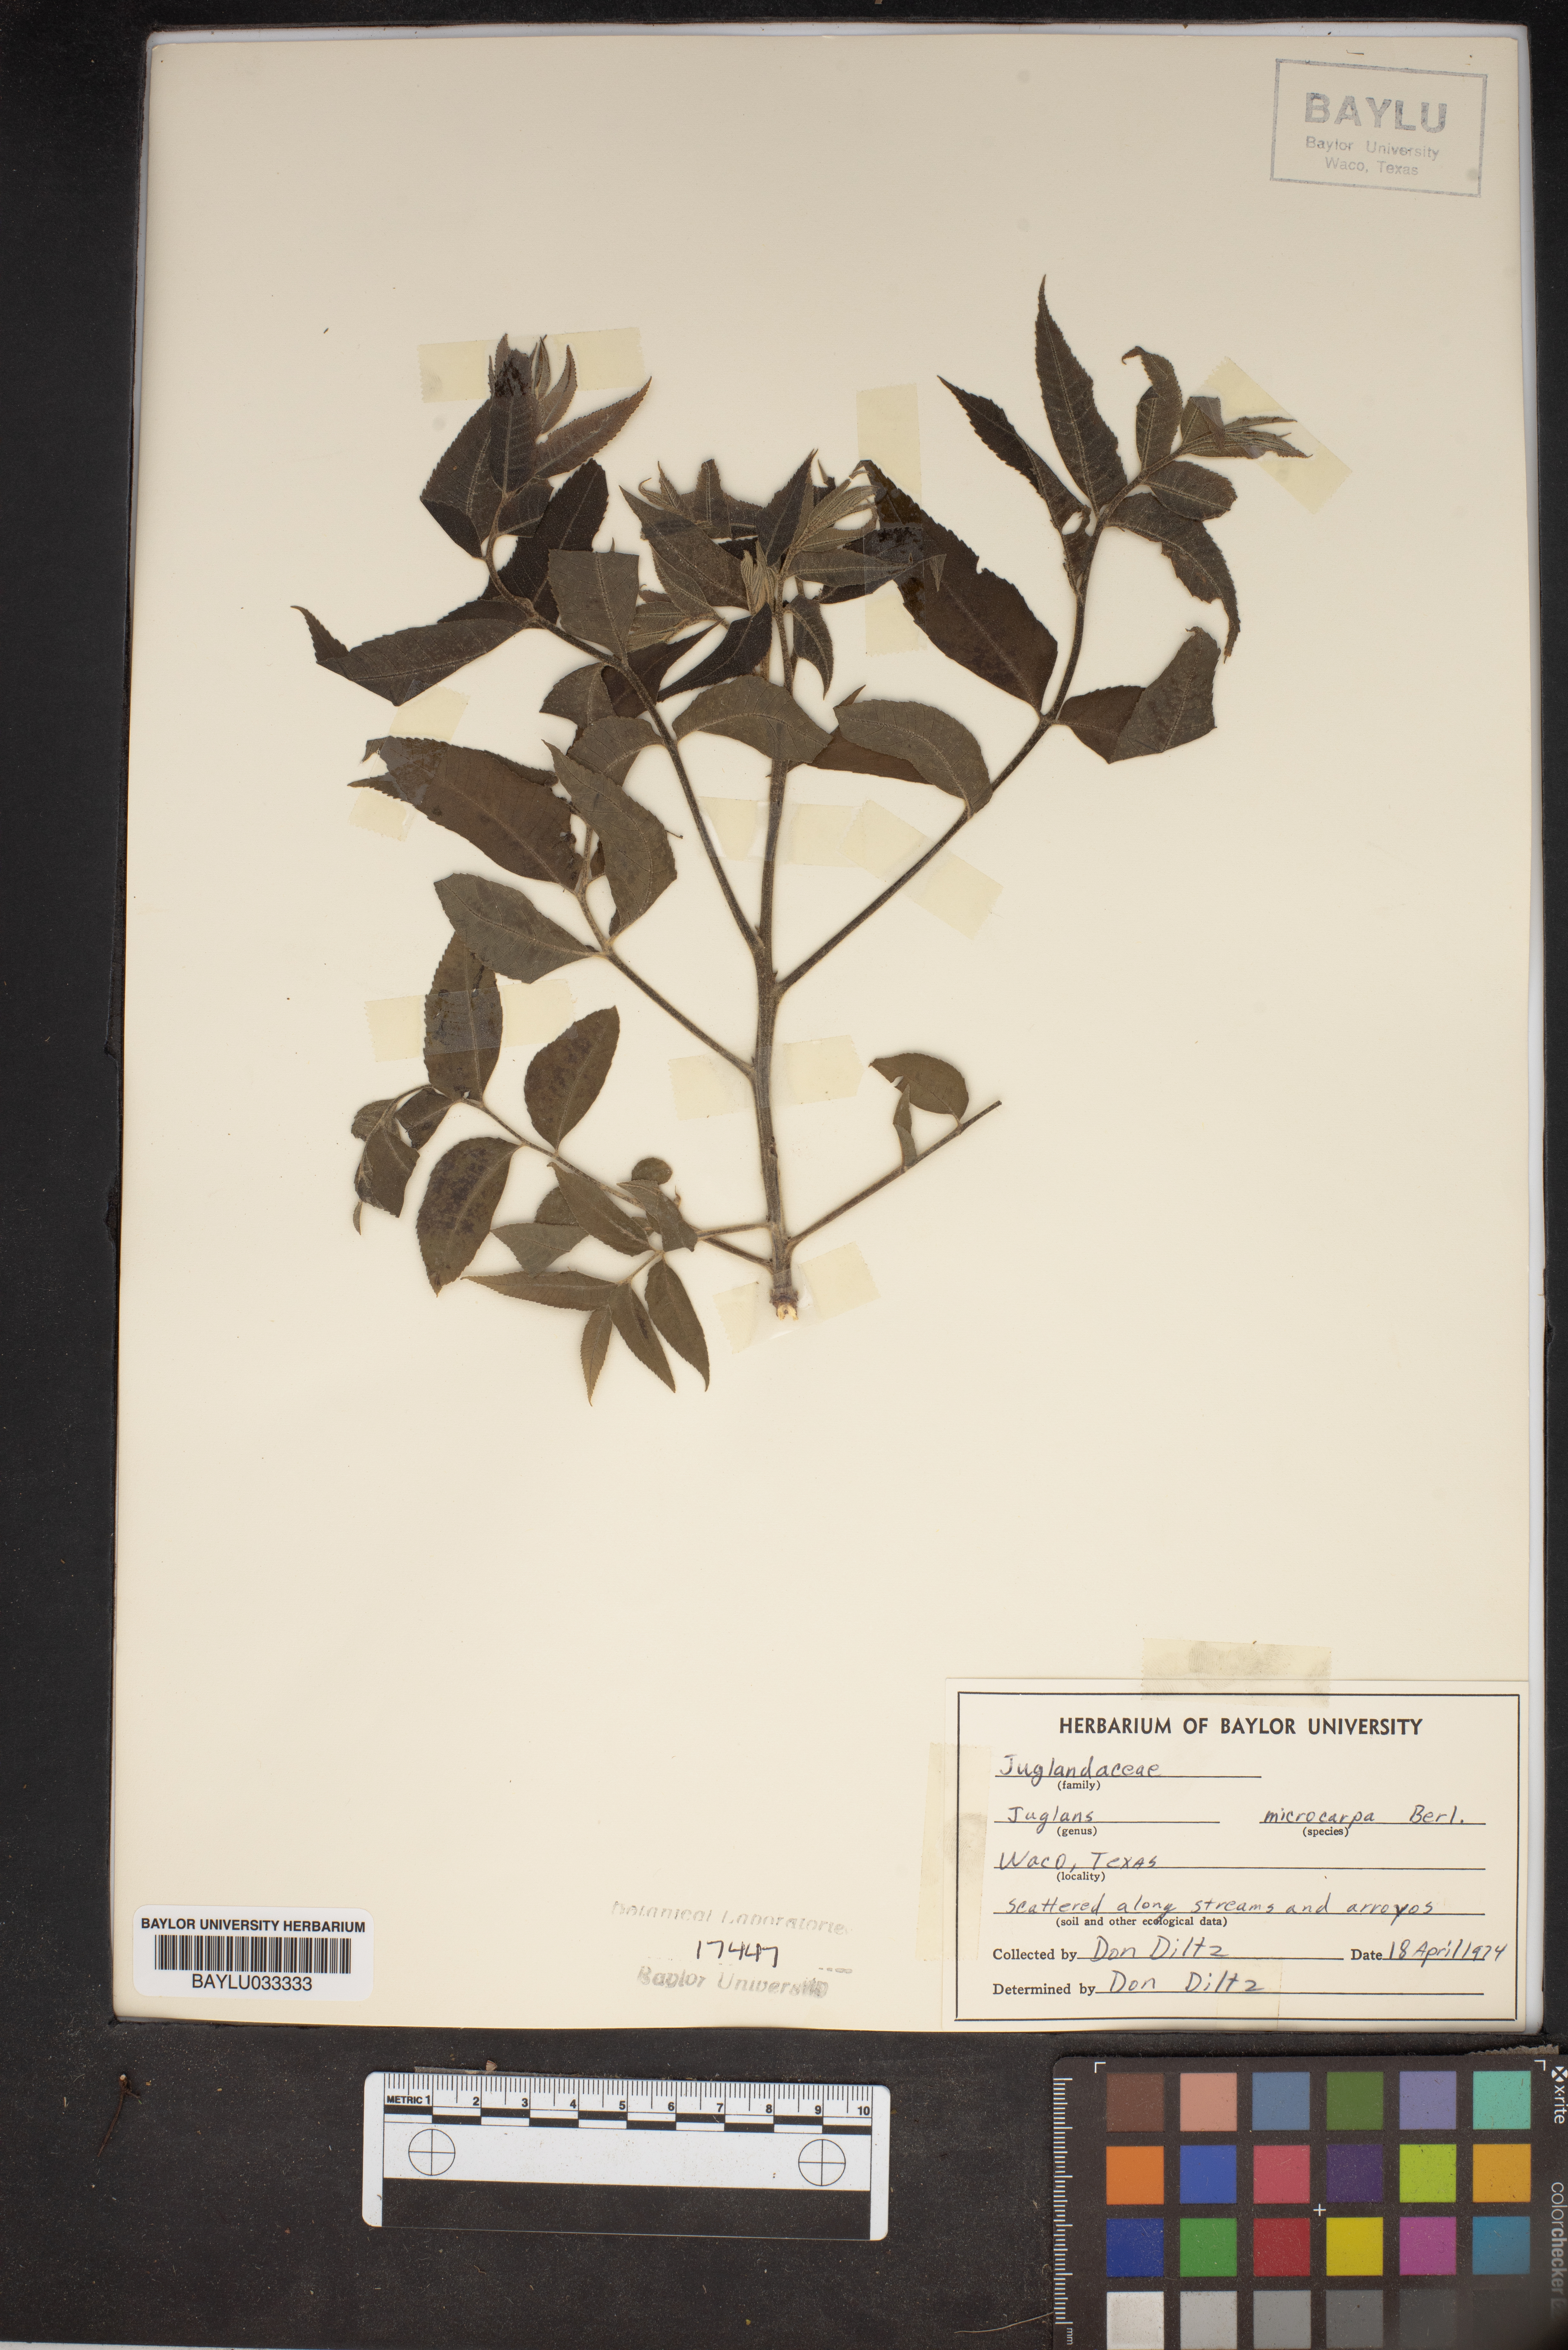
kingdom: Plantae
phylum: Tracheophyta
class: Magnoliopsida
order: Fagales
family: Juglandaceae
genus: Juglans
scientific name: Juglans microcarpa
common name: Texas walnut
